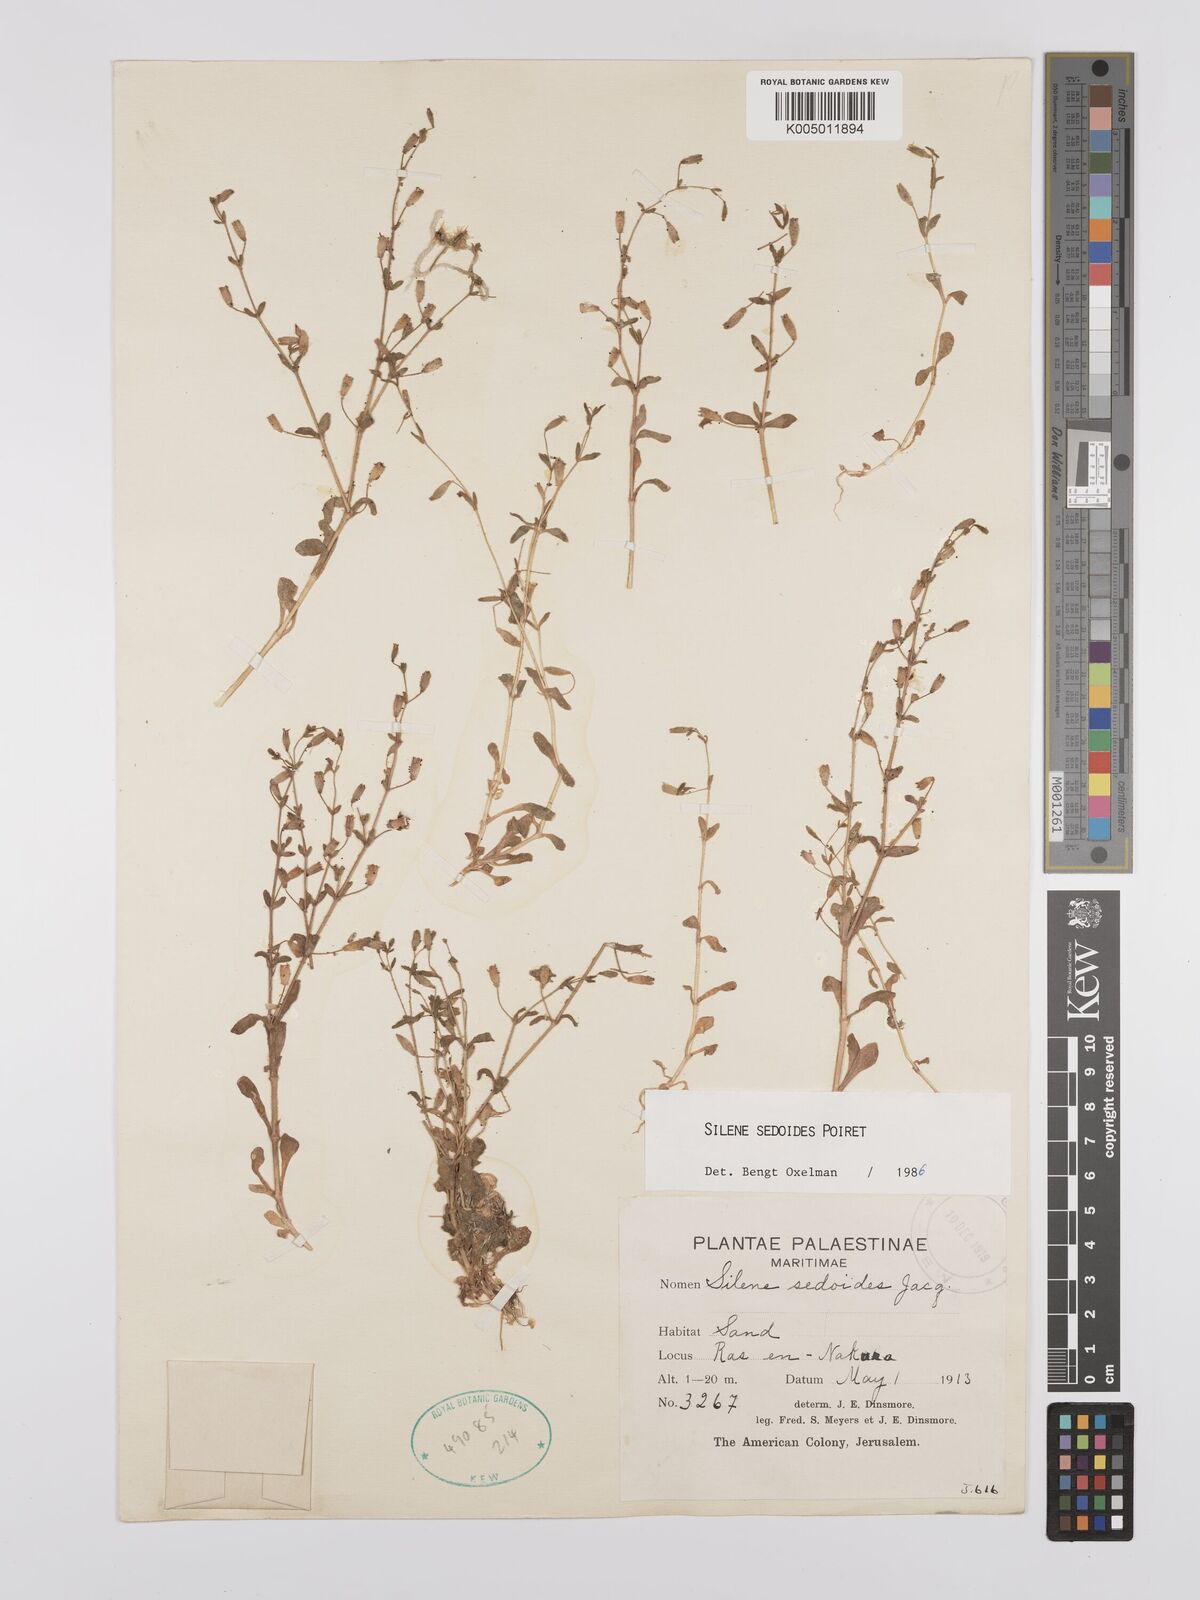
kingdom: Plantae
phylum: Tracheophyta
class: Magnoliopsida
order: Caryophyllales
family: Caryophyllaceae
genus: Silene
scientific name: Silene sedoides
